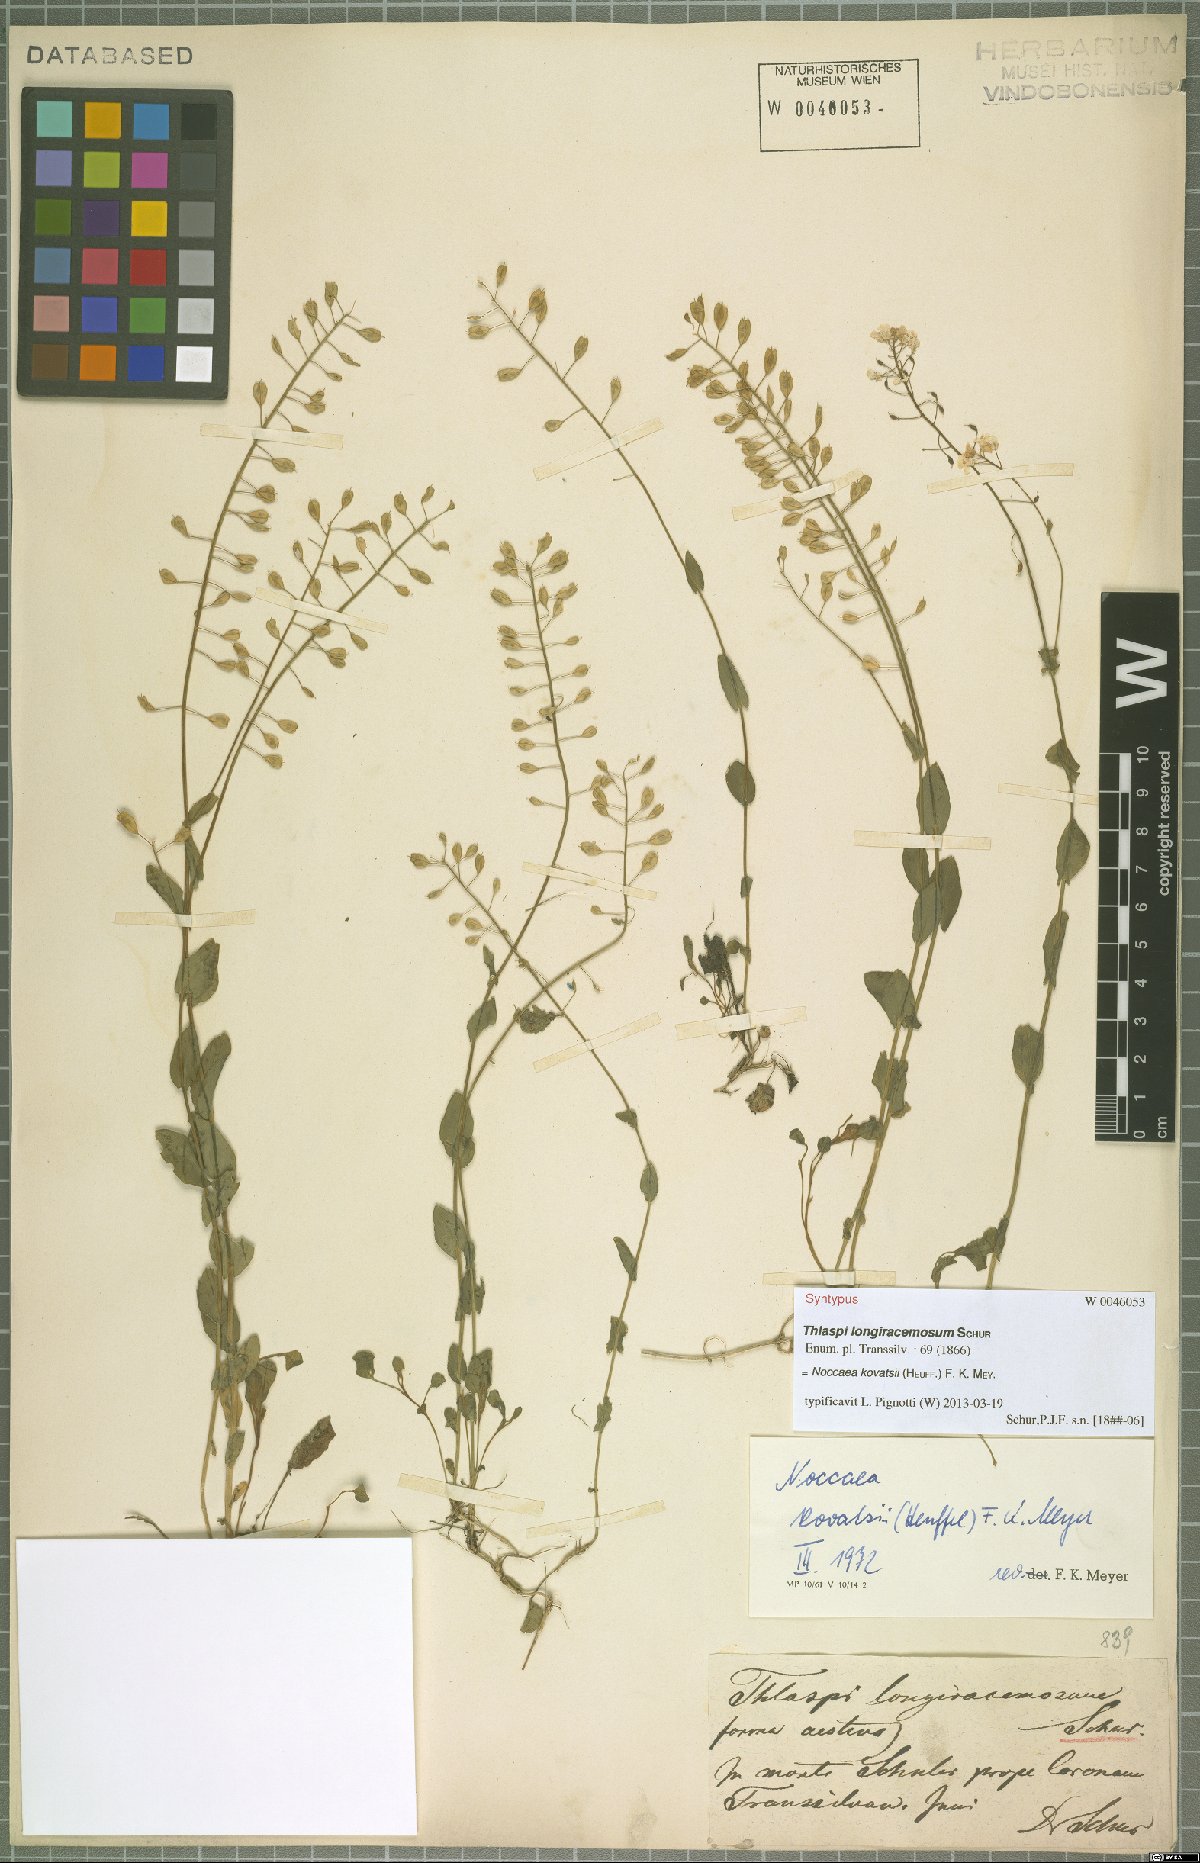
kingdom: Plantae
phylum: Tracheophyta
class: Magnoliopsida
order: Brassicales
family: Brassicaceae
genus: Noccaea
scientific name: Noccaea kovatsii
